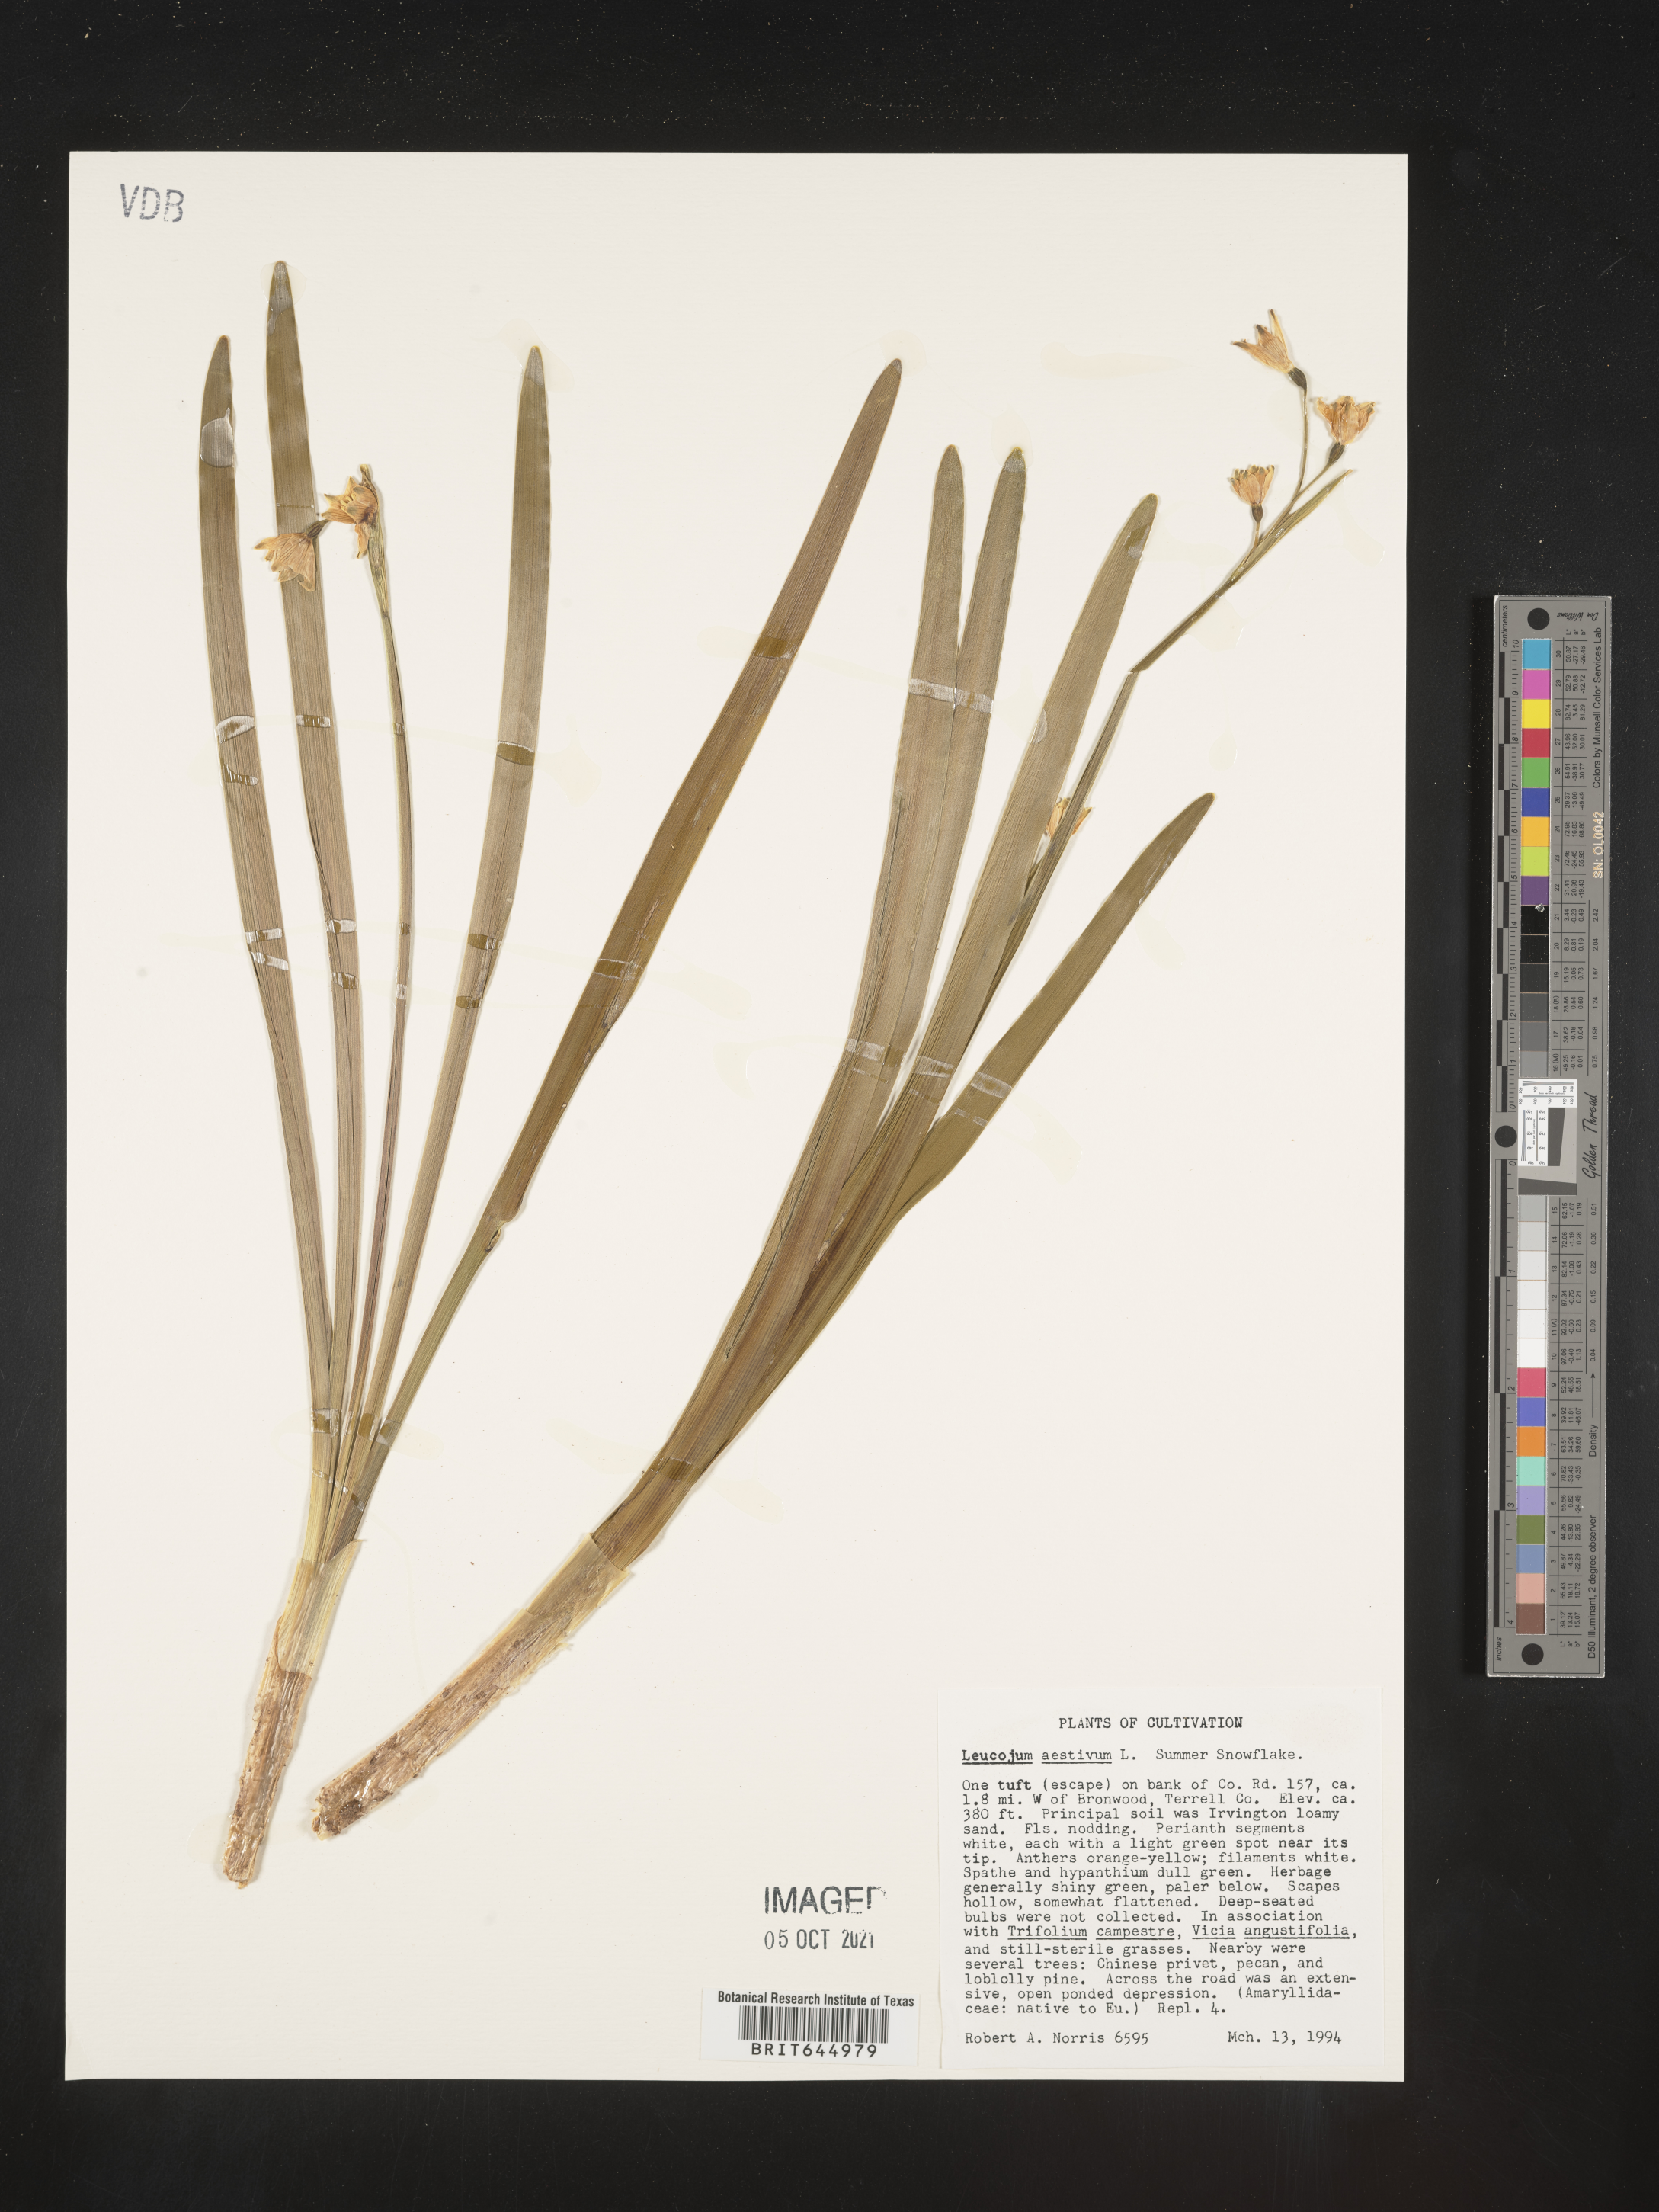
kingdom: Plantae
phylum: Tracheophyta
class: Liliopsida
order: Asparagales
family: Amaryllidaceae
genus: Leucojum
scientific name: Leucojum aestivum
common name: Summer snowflake
